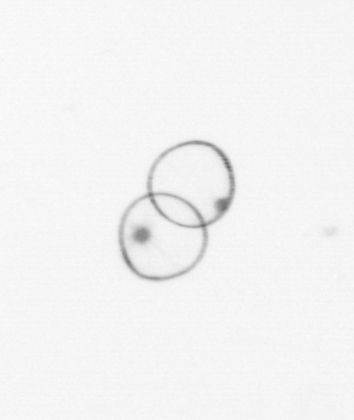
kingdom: Chromista
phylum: Myzozoa
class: Dinophyceae
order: Noctilucales
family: Noctilucaceae
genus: Noctiluca
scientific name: Noctiluca scintillans
